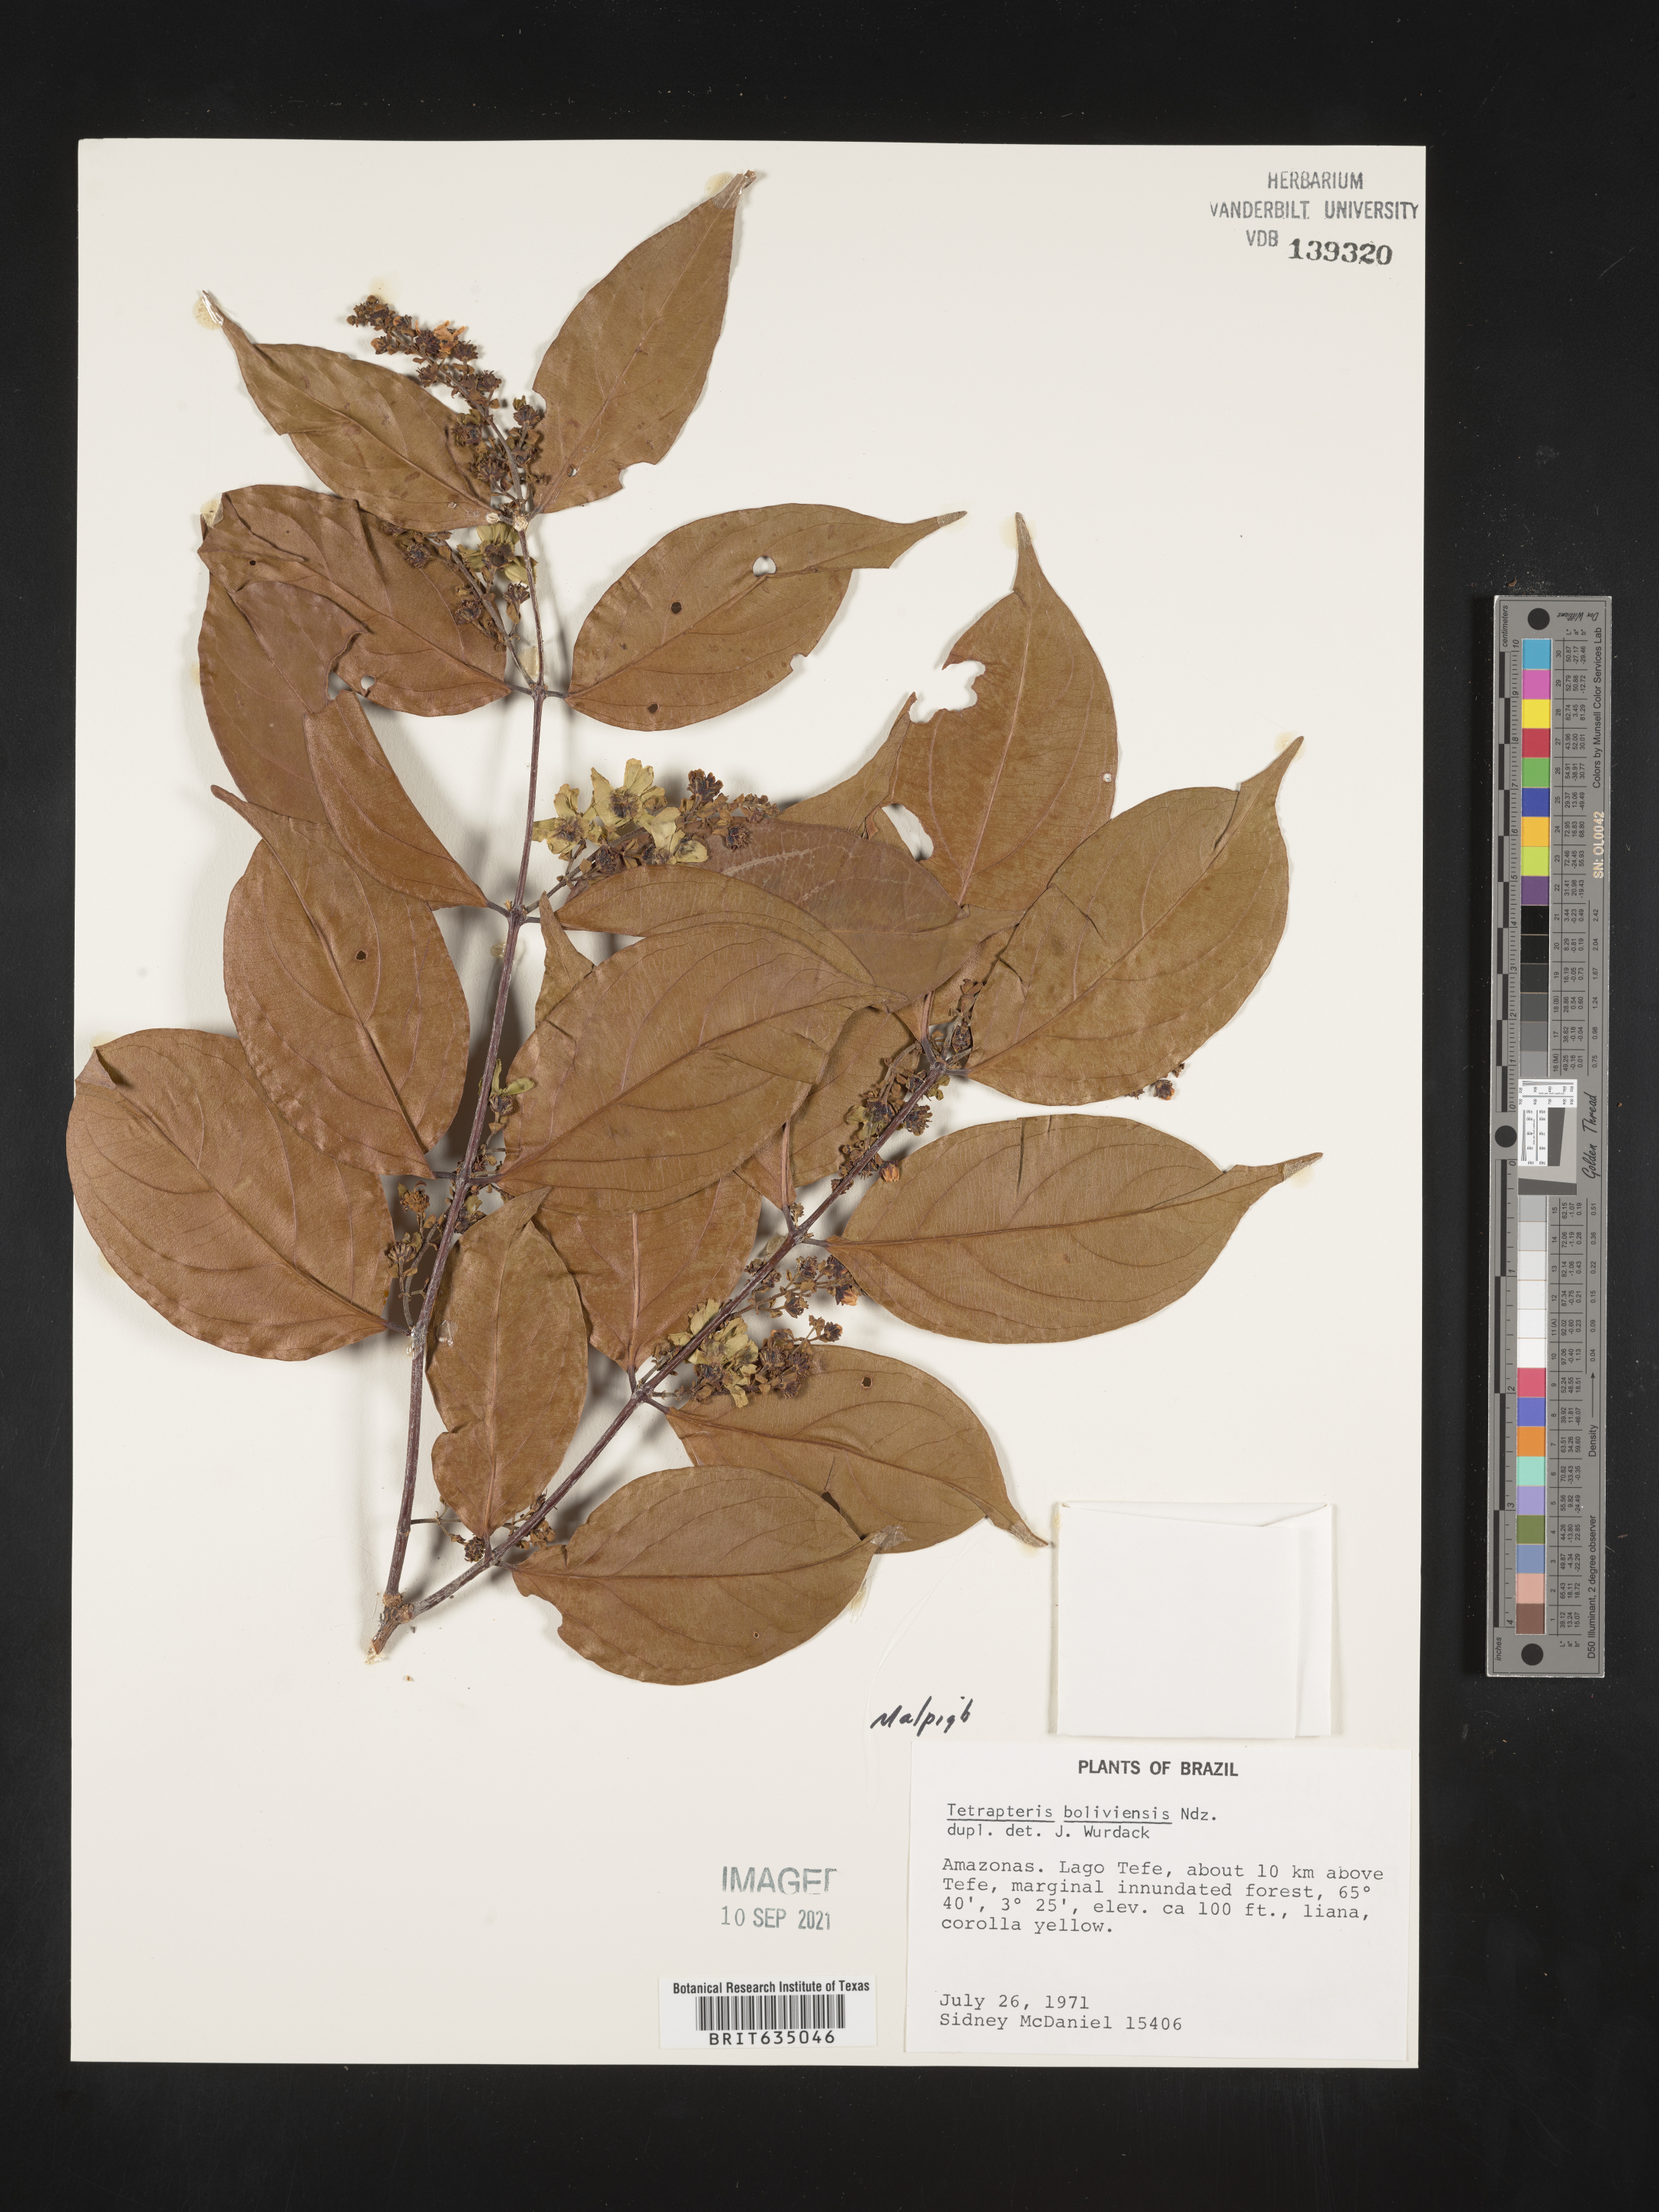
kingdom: Plantae
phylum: Tracheophyta
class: Magnoliopsida
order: Ericales
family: Styracaceae
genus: Tetrapteris
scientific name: Tetrapteris
